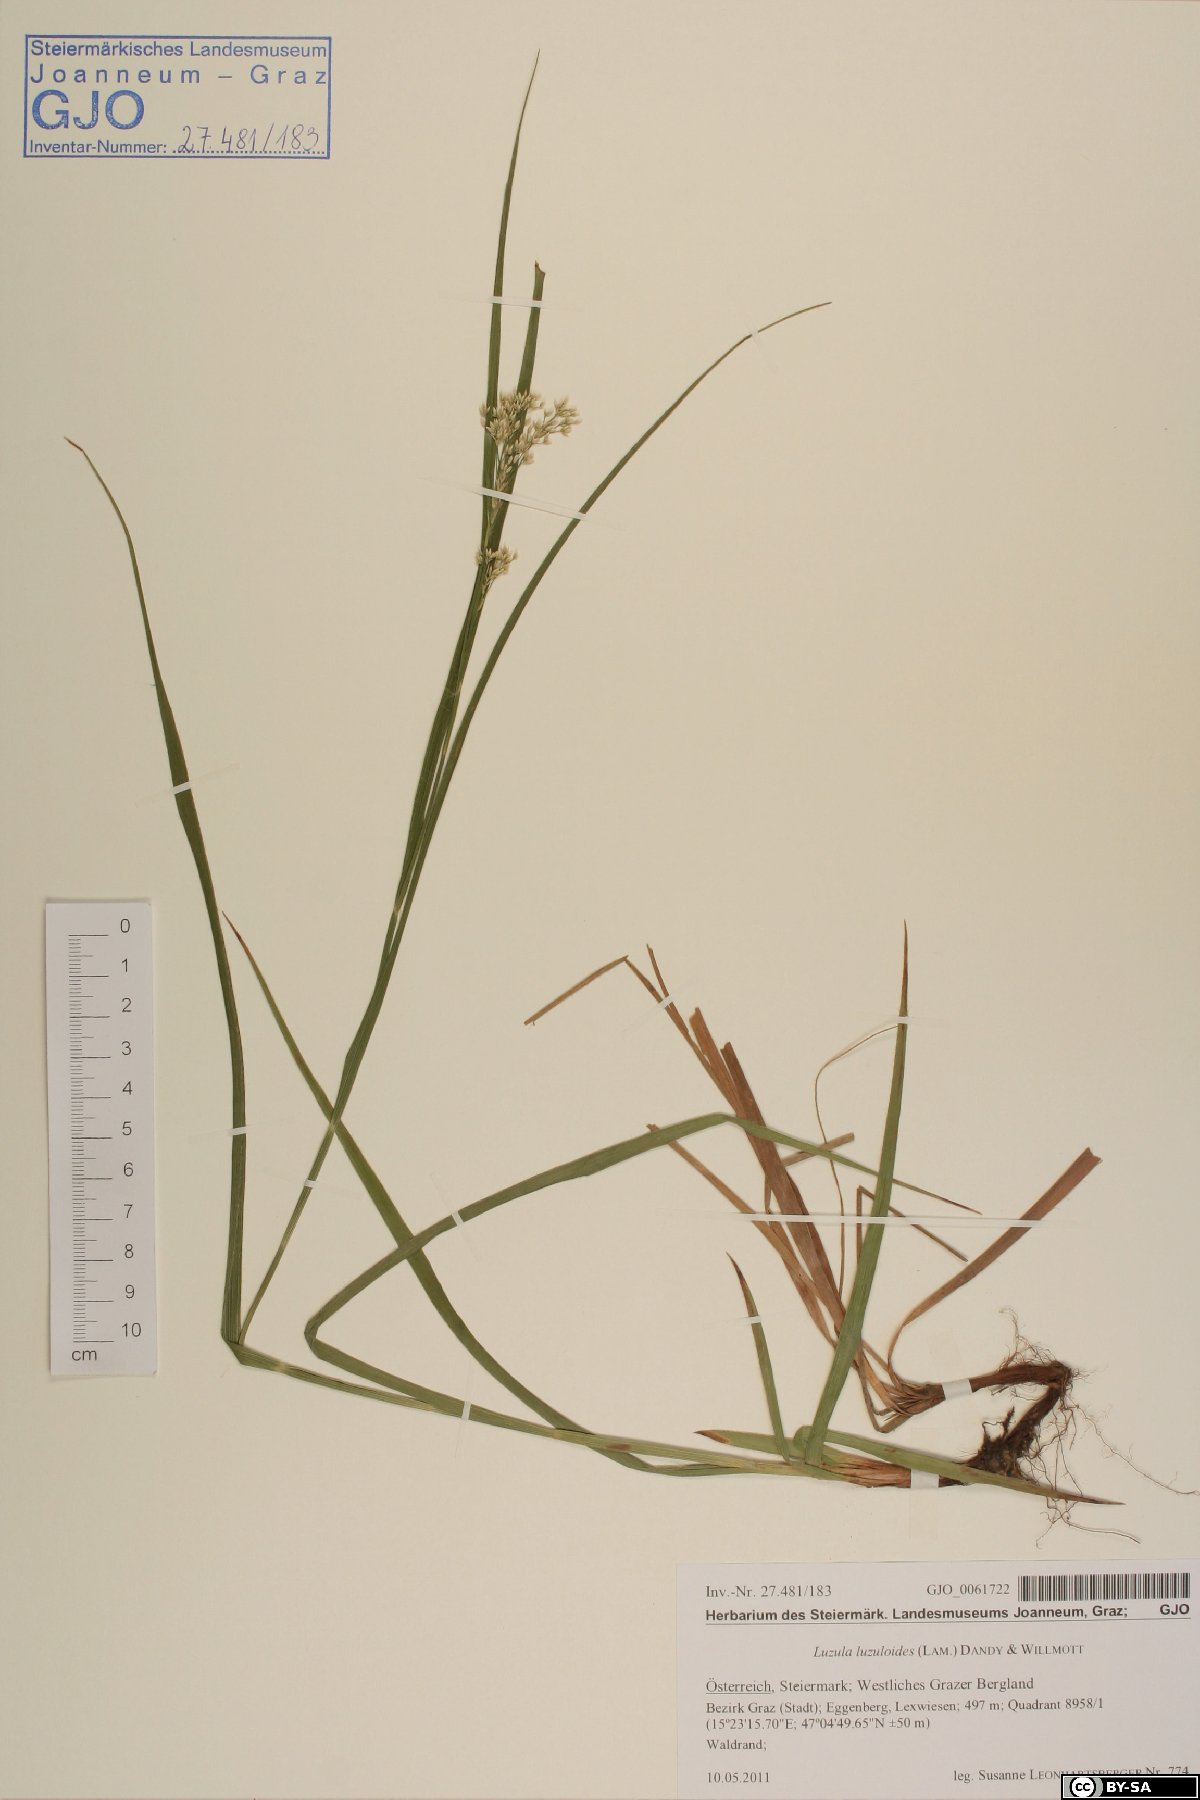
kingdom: Plantae
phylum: Tracheophyta
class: Liliopsida
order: Poales
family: Juncaceae
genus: Luzula
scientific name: Luzula luzuloides
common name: White wood-rush
